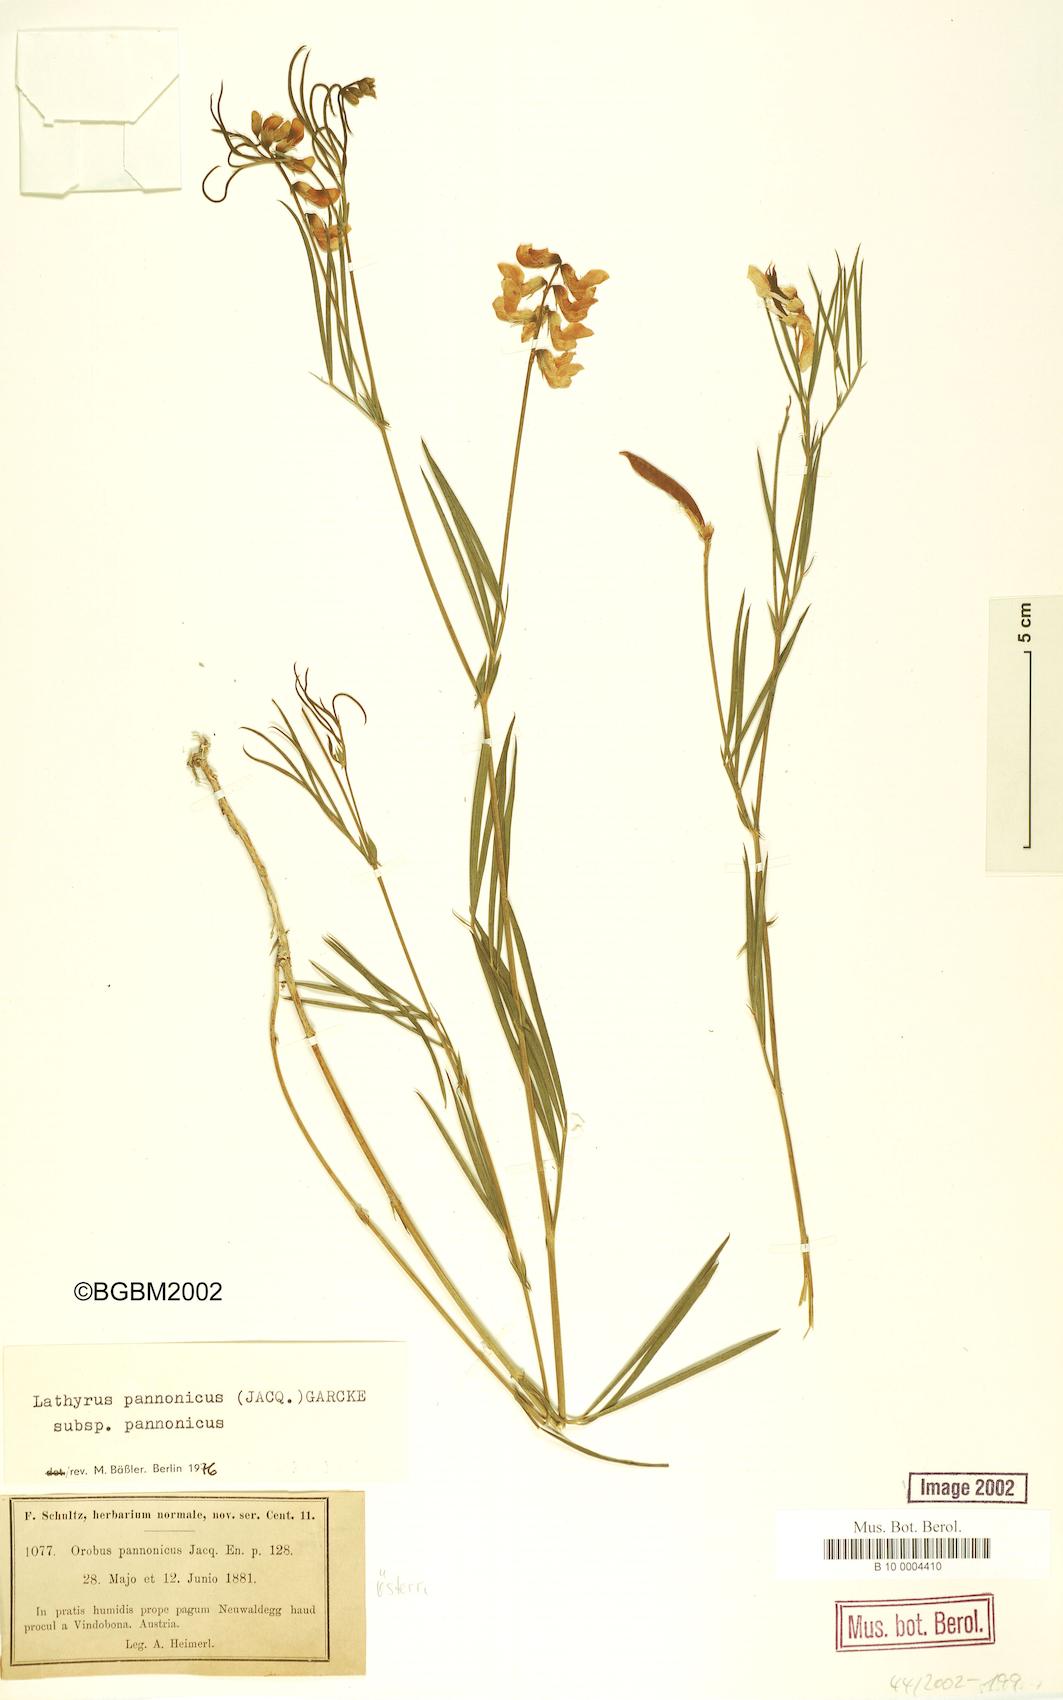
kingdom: Plantae
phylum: Tracheophyta
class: Magnoliopsida
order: Fabales
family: Fabaceae
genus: Lathyrus
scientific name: Lathyrus pannonicus
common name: Pea
